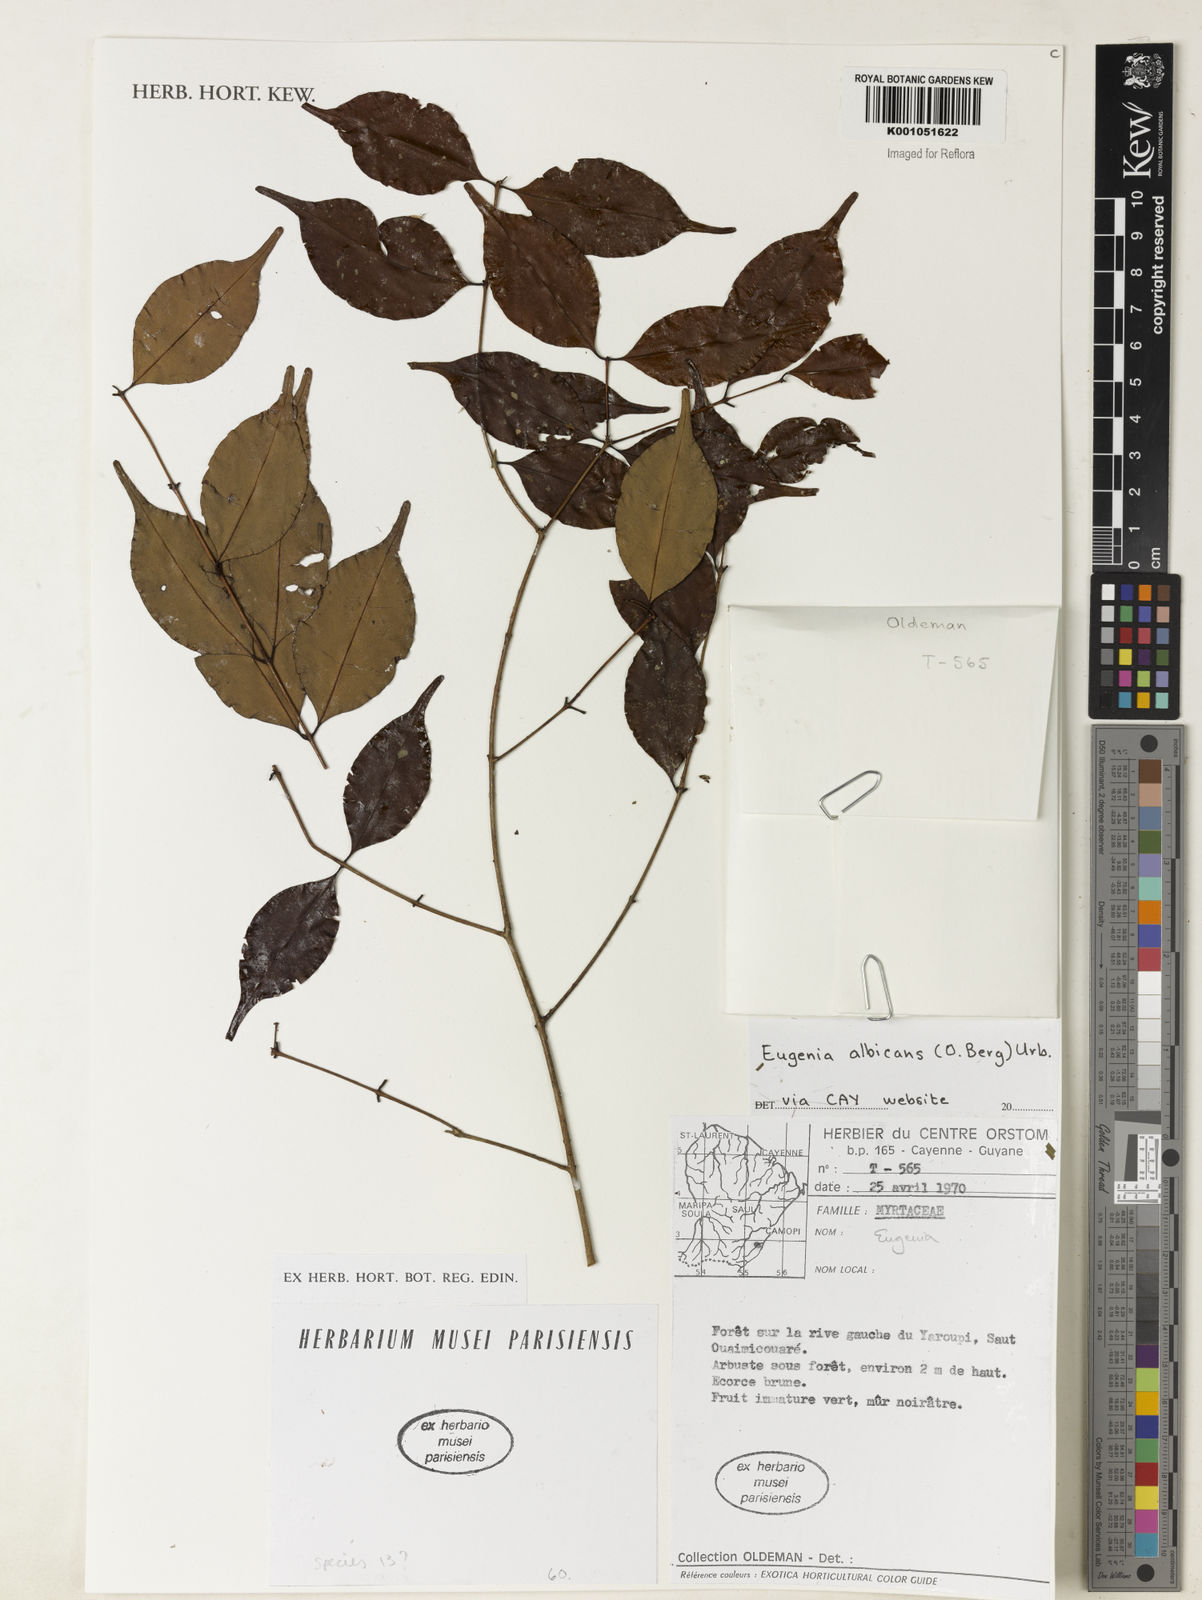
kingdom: Plantae
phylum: Tracheophyta
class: Magnoliopsida
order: Myrtales
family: Myrtaceae
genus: Eugenia
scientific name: Eugenia albicans
